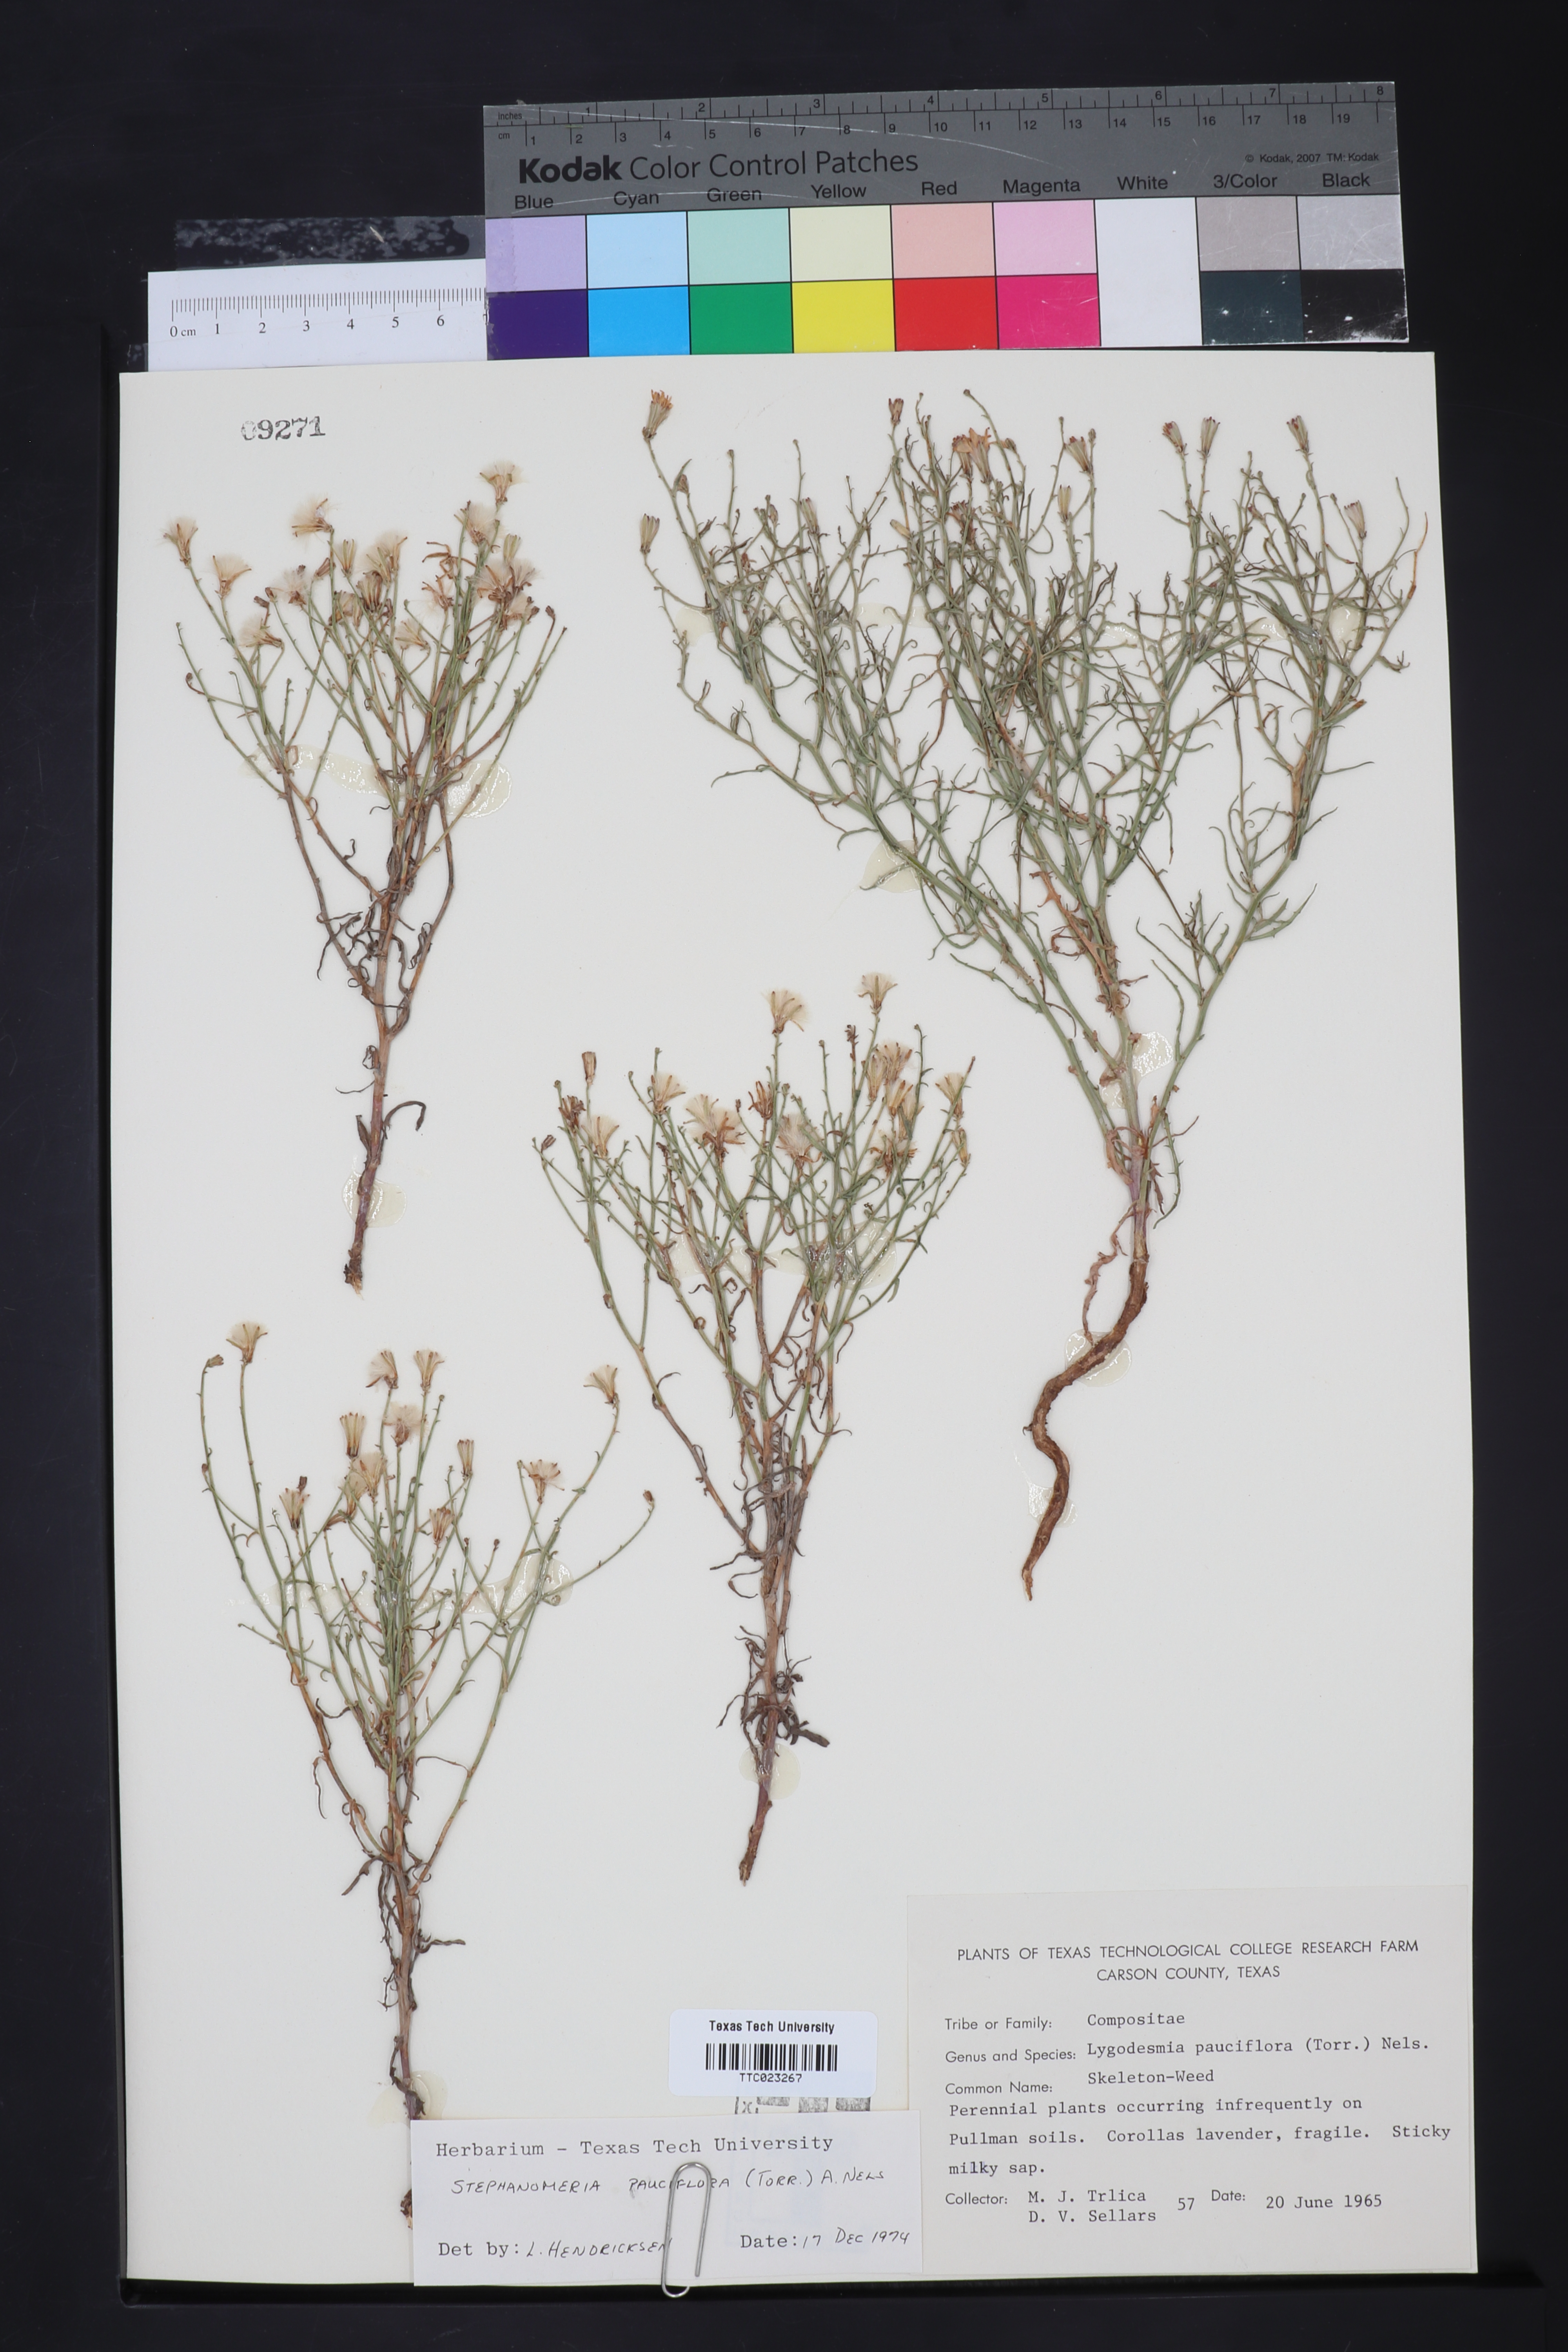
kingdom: Plantae
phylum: Tracheophyta
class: Magnoliopsida
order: Asterales
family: Asteraceae
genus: Stephanomeria
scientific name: Stephanomeria pauciflora
